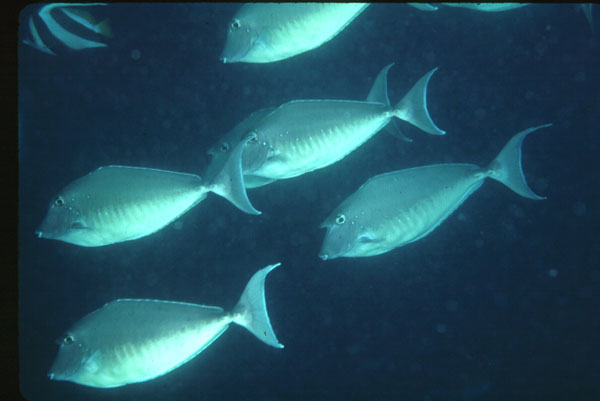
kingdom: Animalia
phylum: Chordata
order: Perciformes
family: Acanthuridae
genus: Naso
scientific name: Naso brachycentron
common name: Humpback unicornfish
